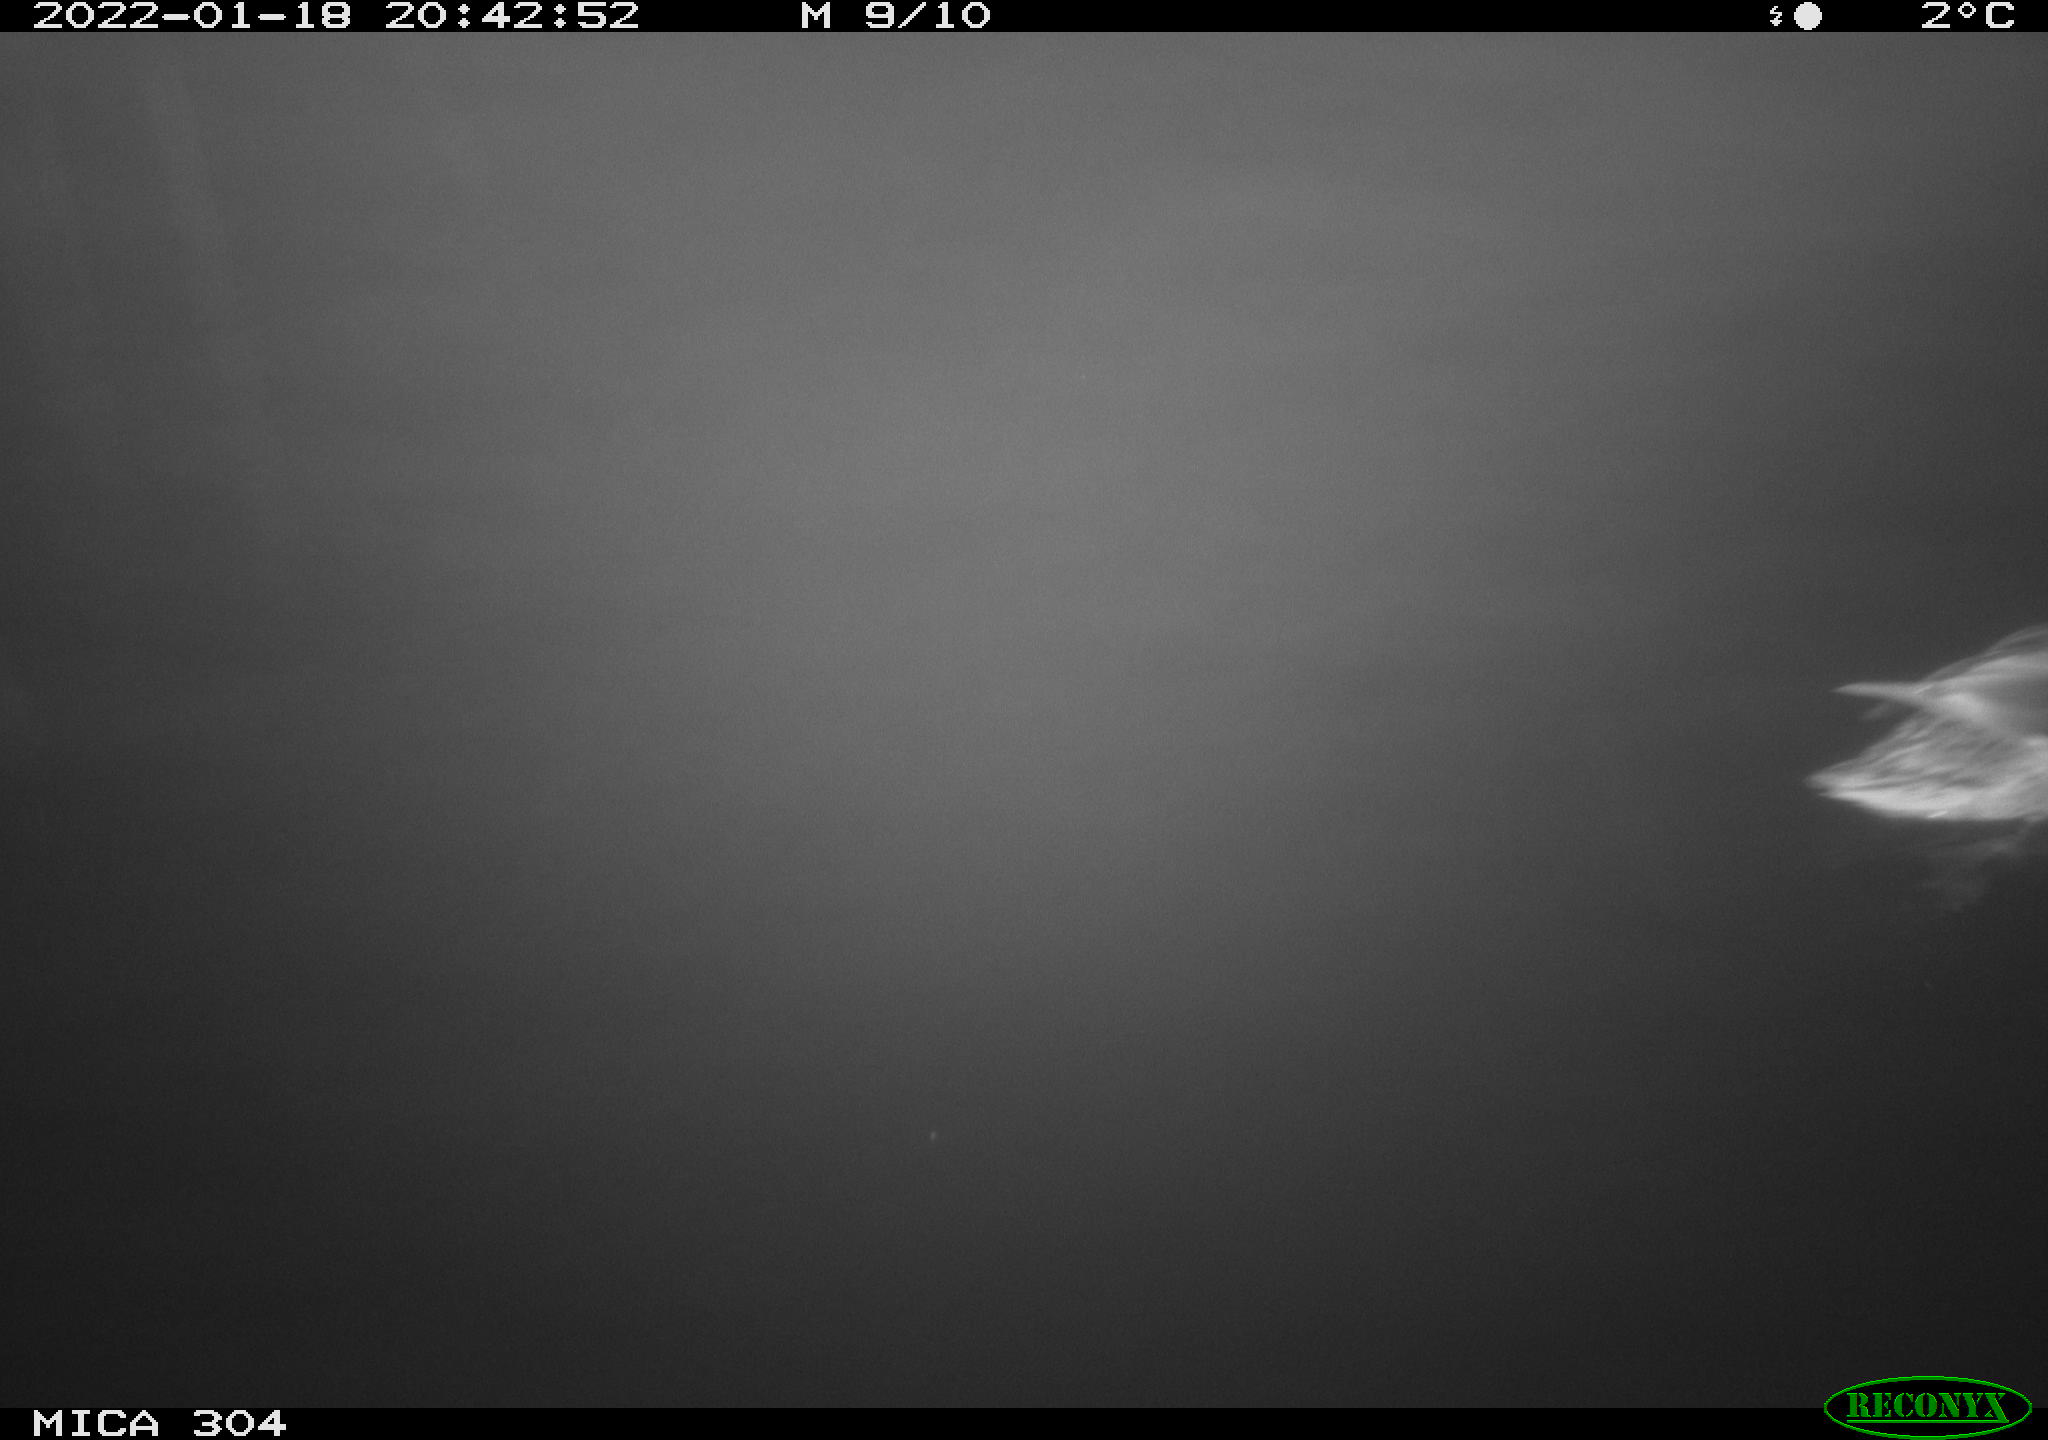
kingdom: Animalia
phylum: Chordata
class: Aves
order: Anseriformes
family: Anatidae
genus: Anas
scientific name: Anas
